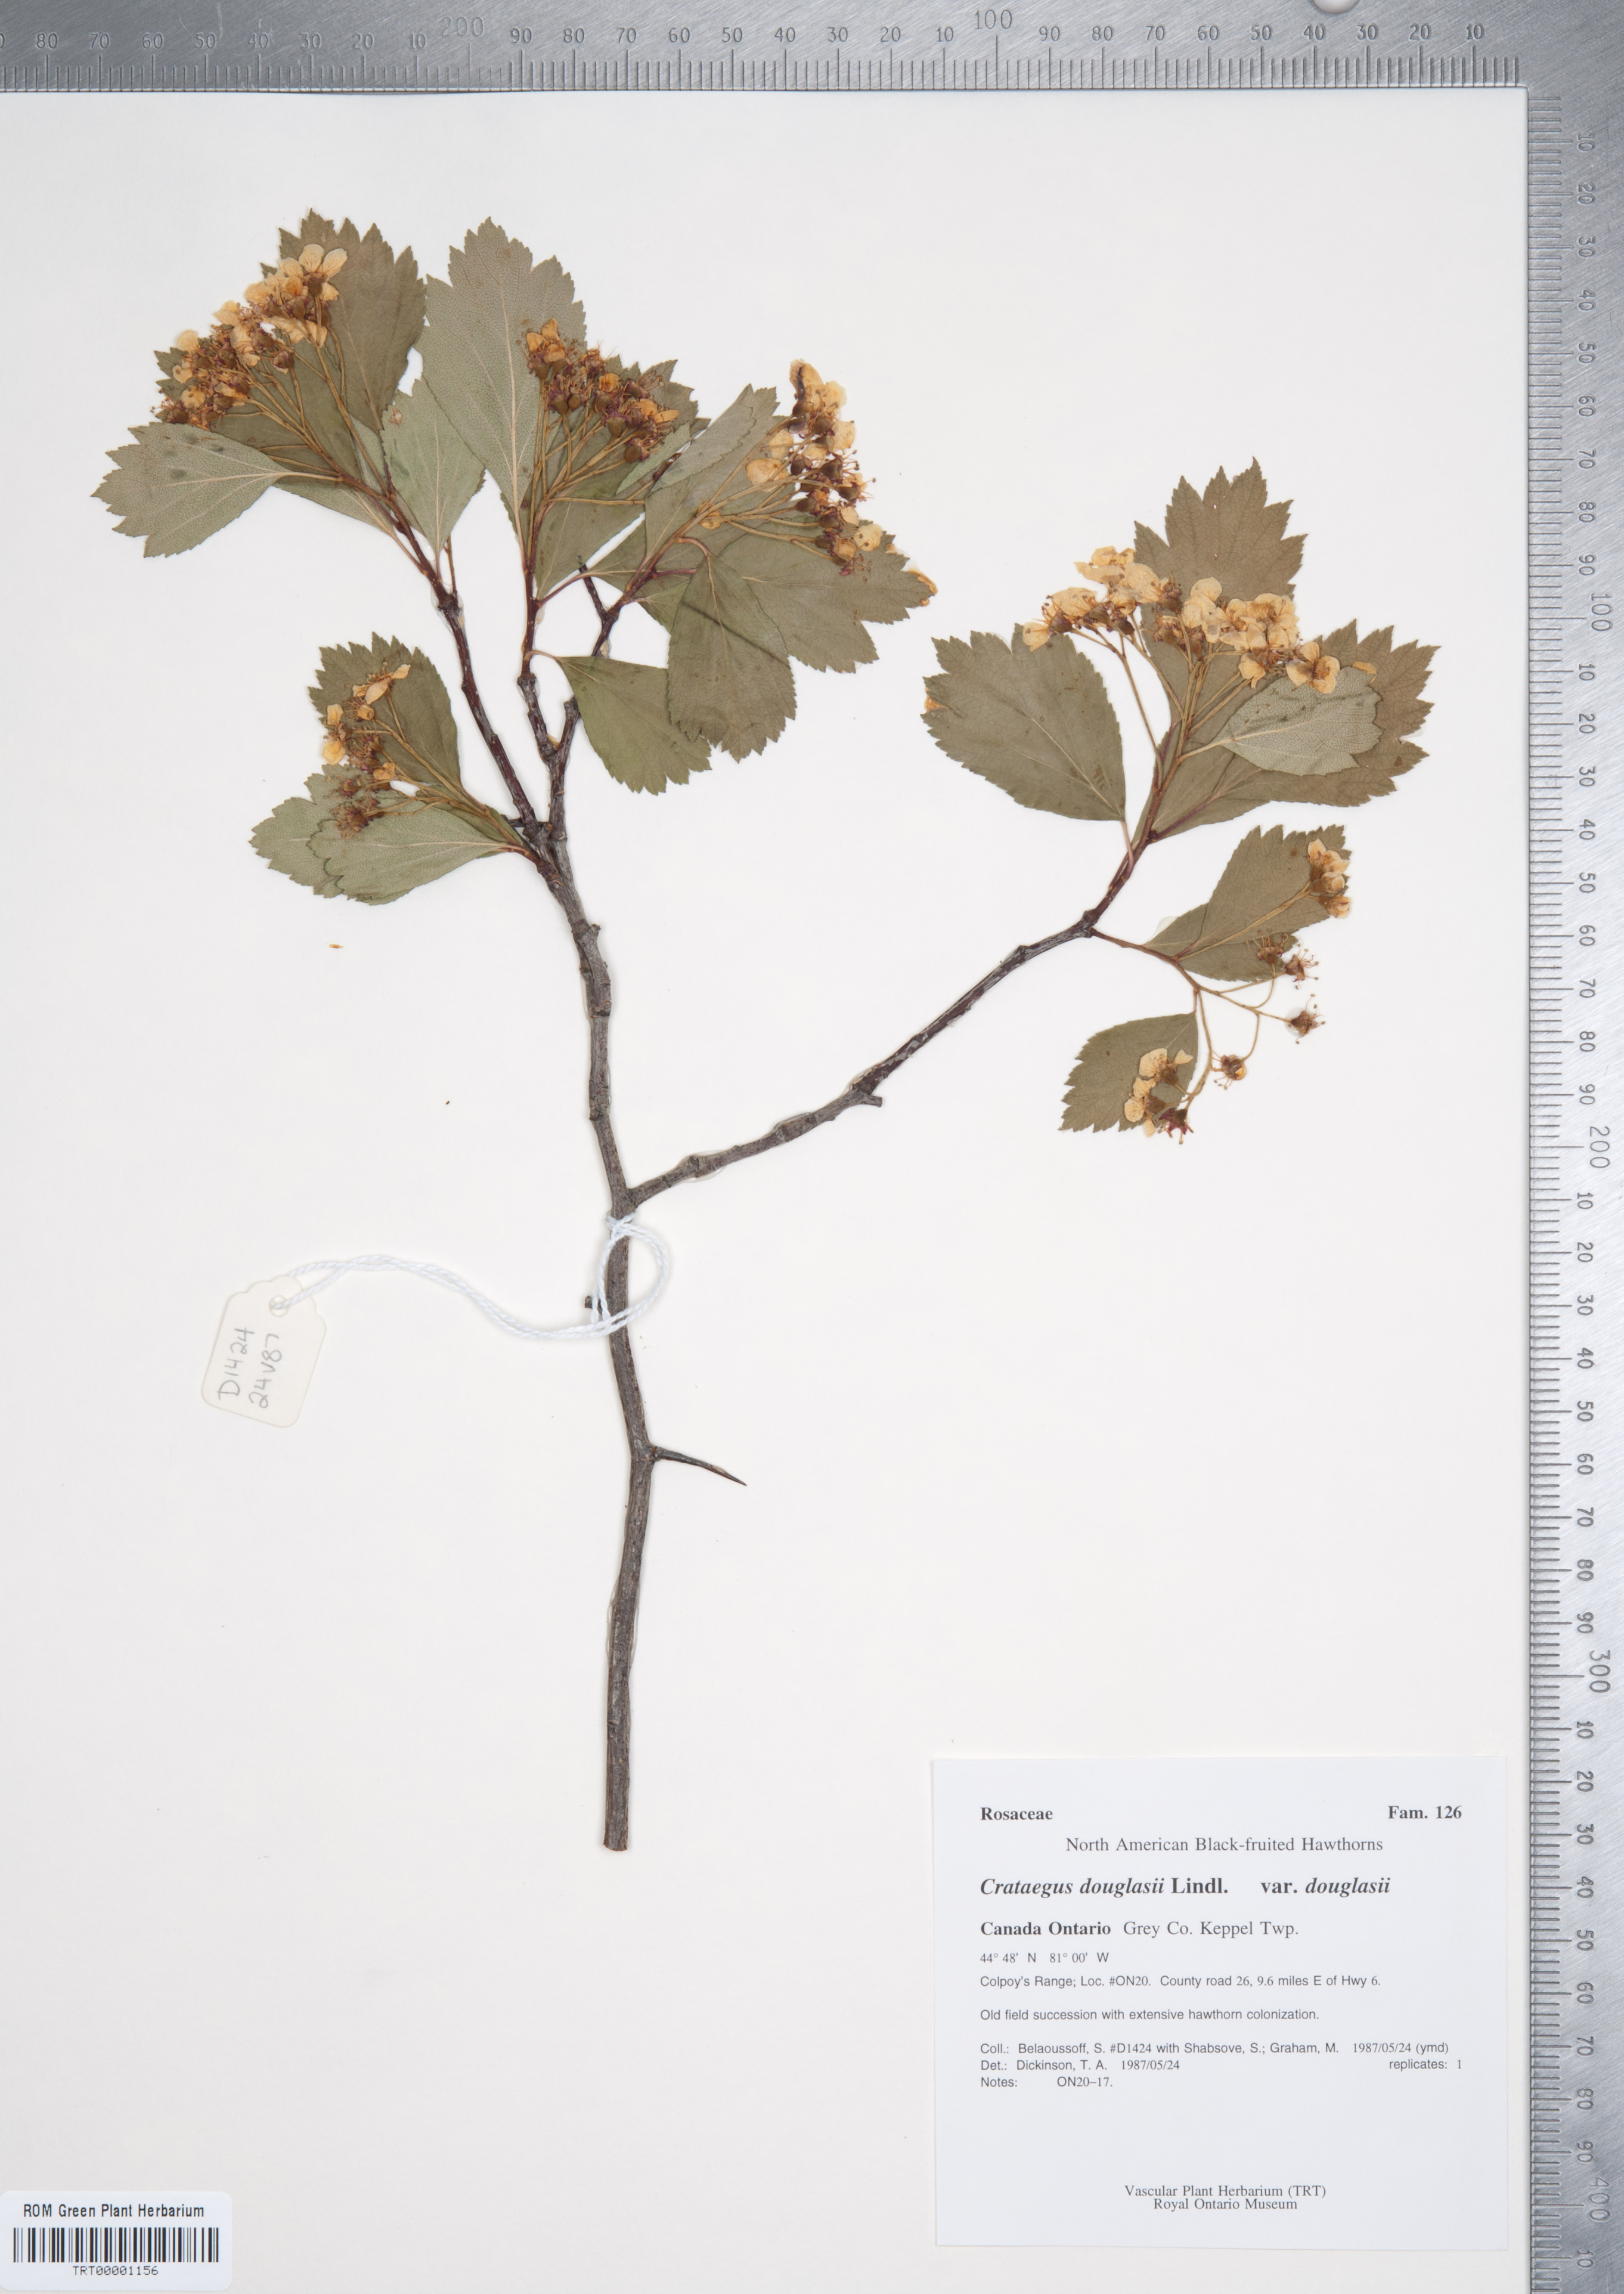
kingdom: Plantae
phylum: Tracheophyta
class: Magnoliopsida
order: Rosales
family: Rosaceae
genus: Crataegus
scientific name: Crataegus douglasii
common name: Black hawthorn
